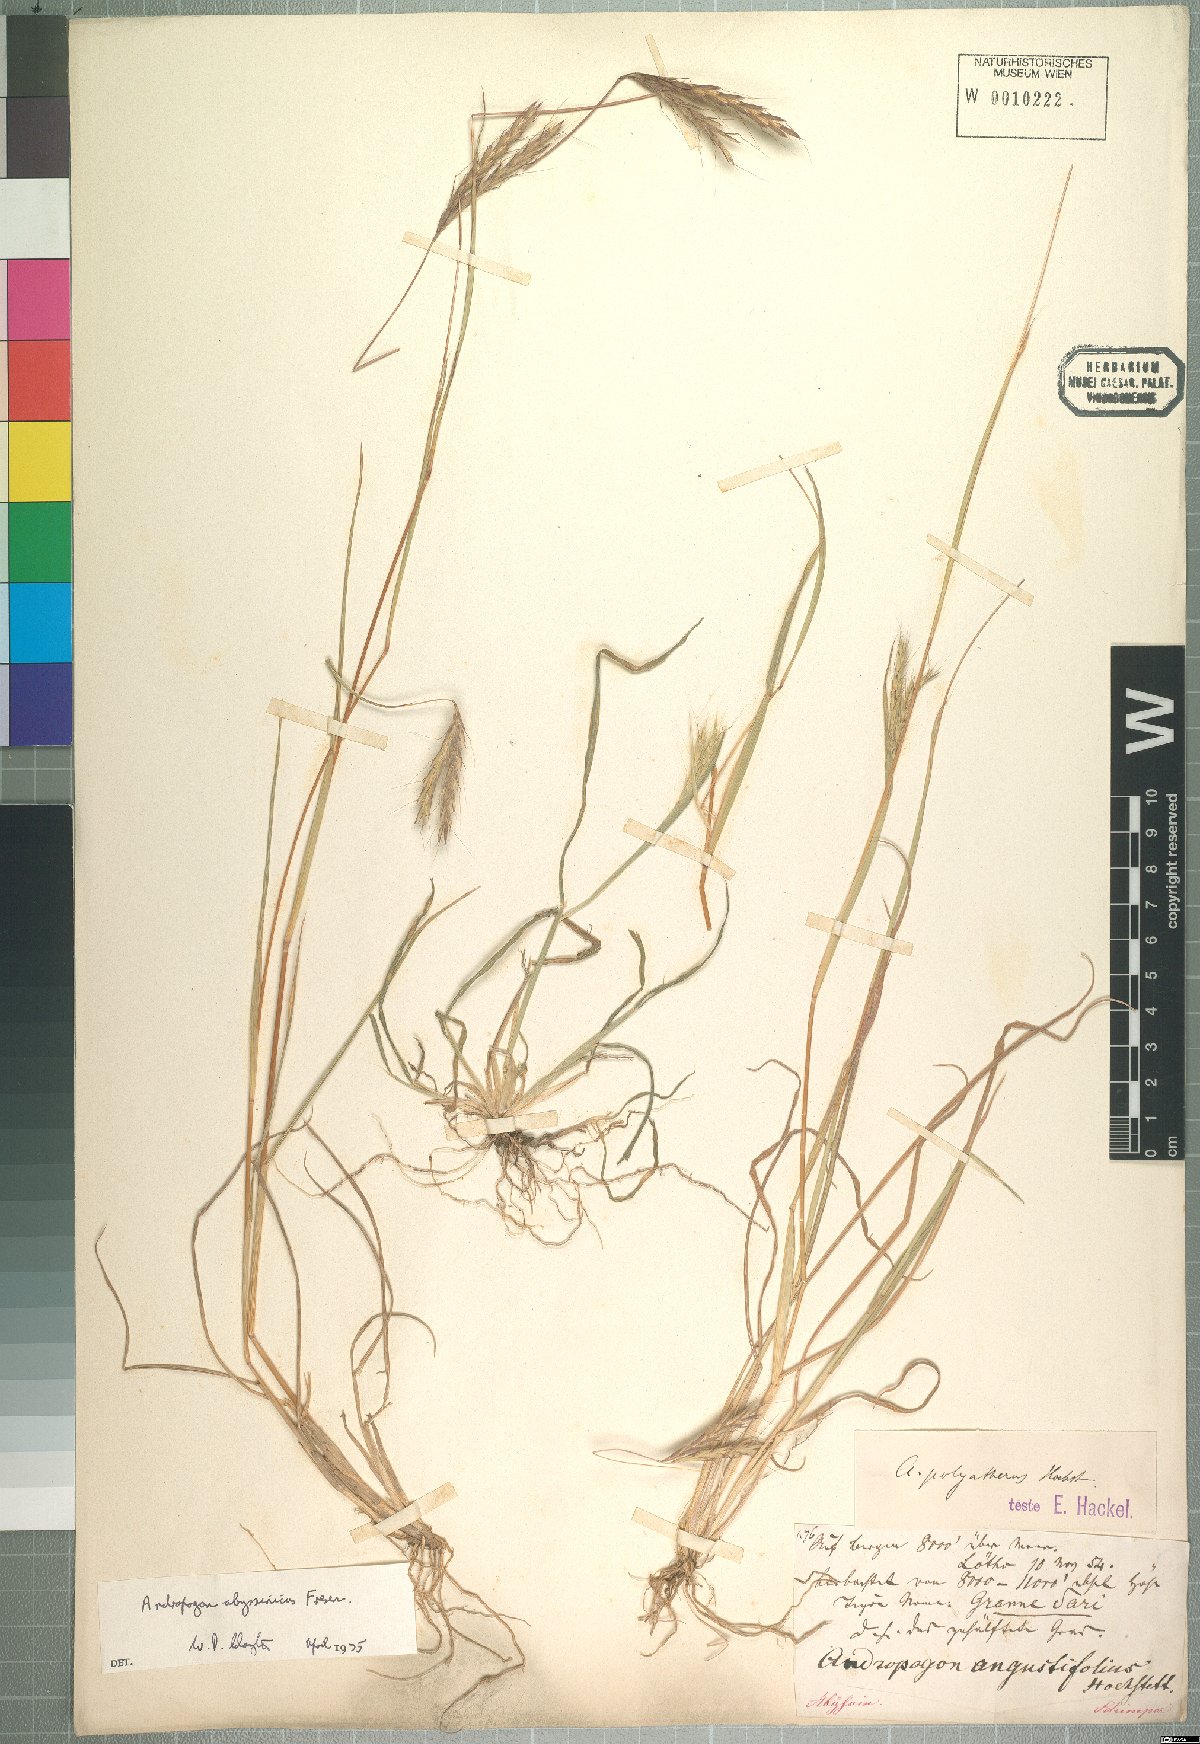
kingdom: Plantae
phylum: Tracheophyta
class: Liliopsida
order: Poales
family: Poaceae
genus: Andropogon
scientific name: Andropogon abyssinicus
